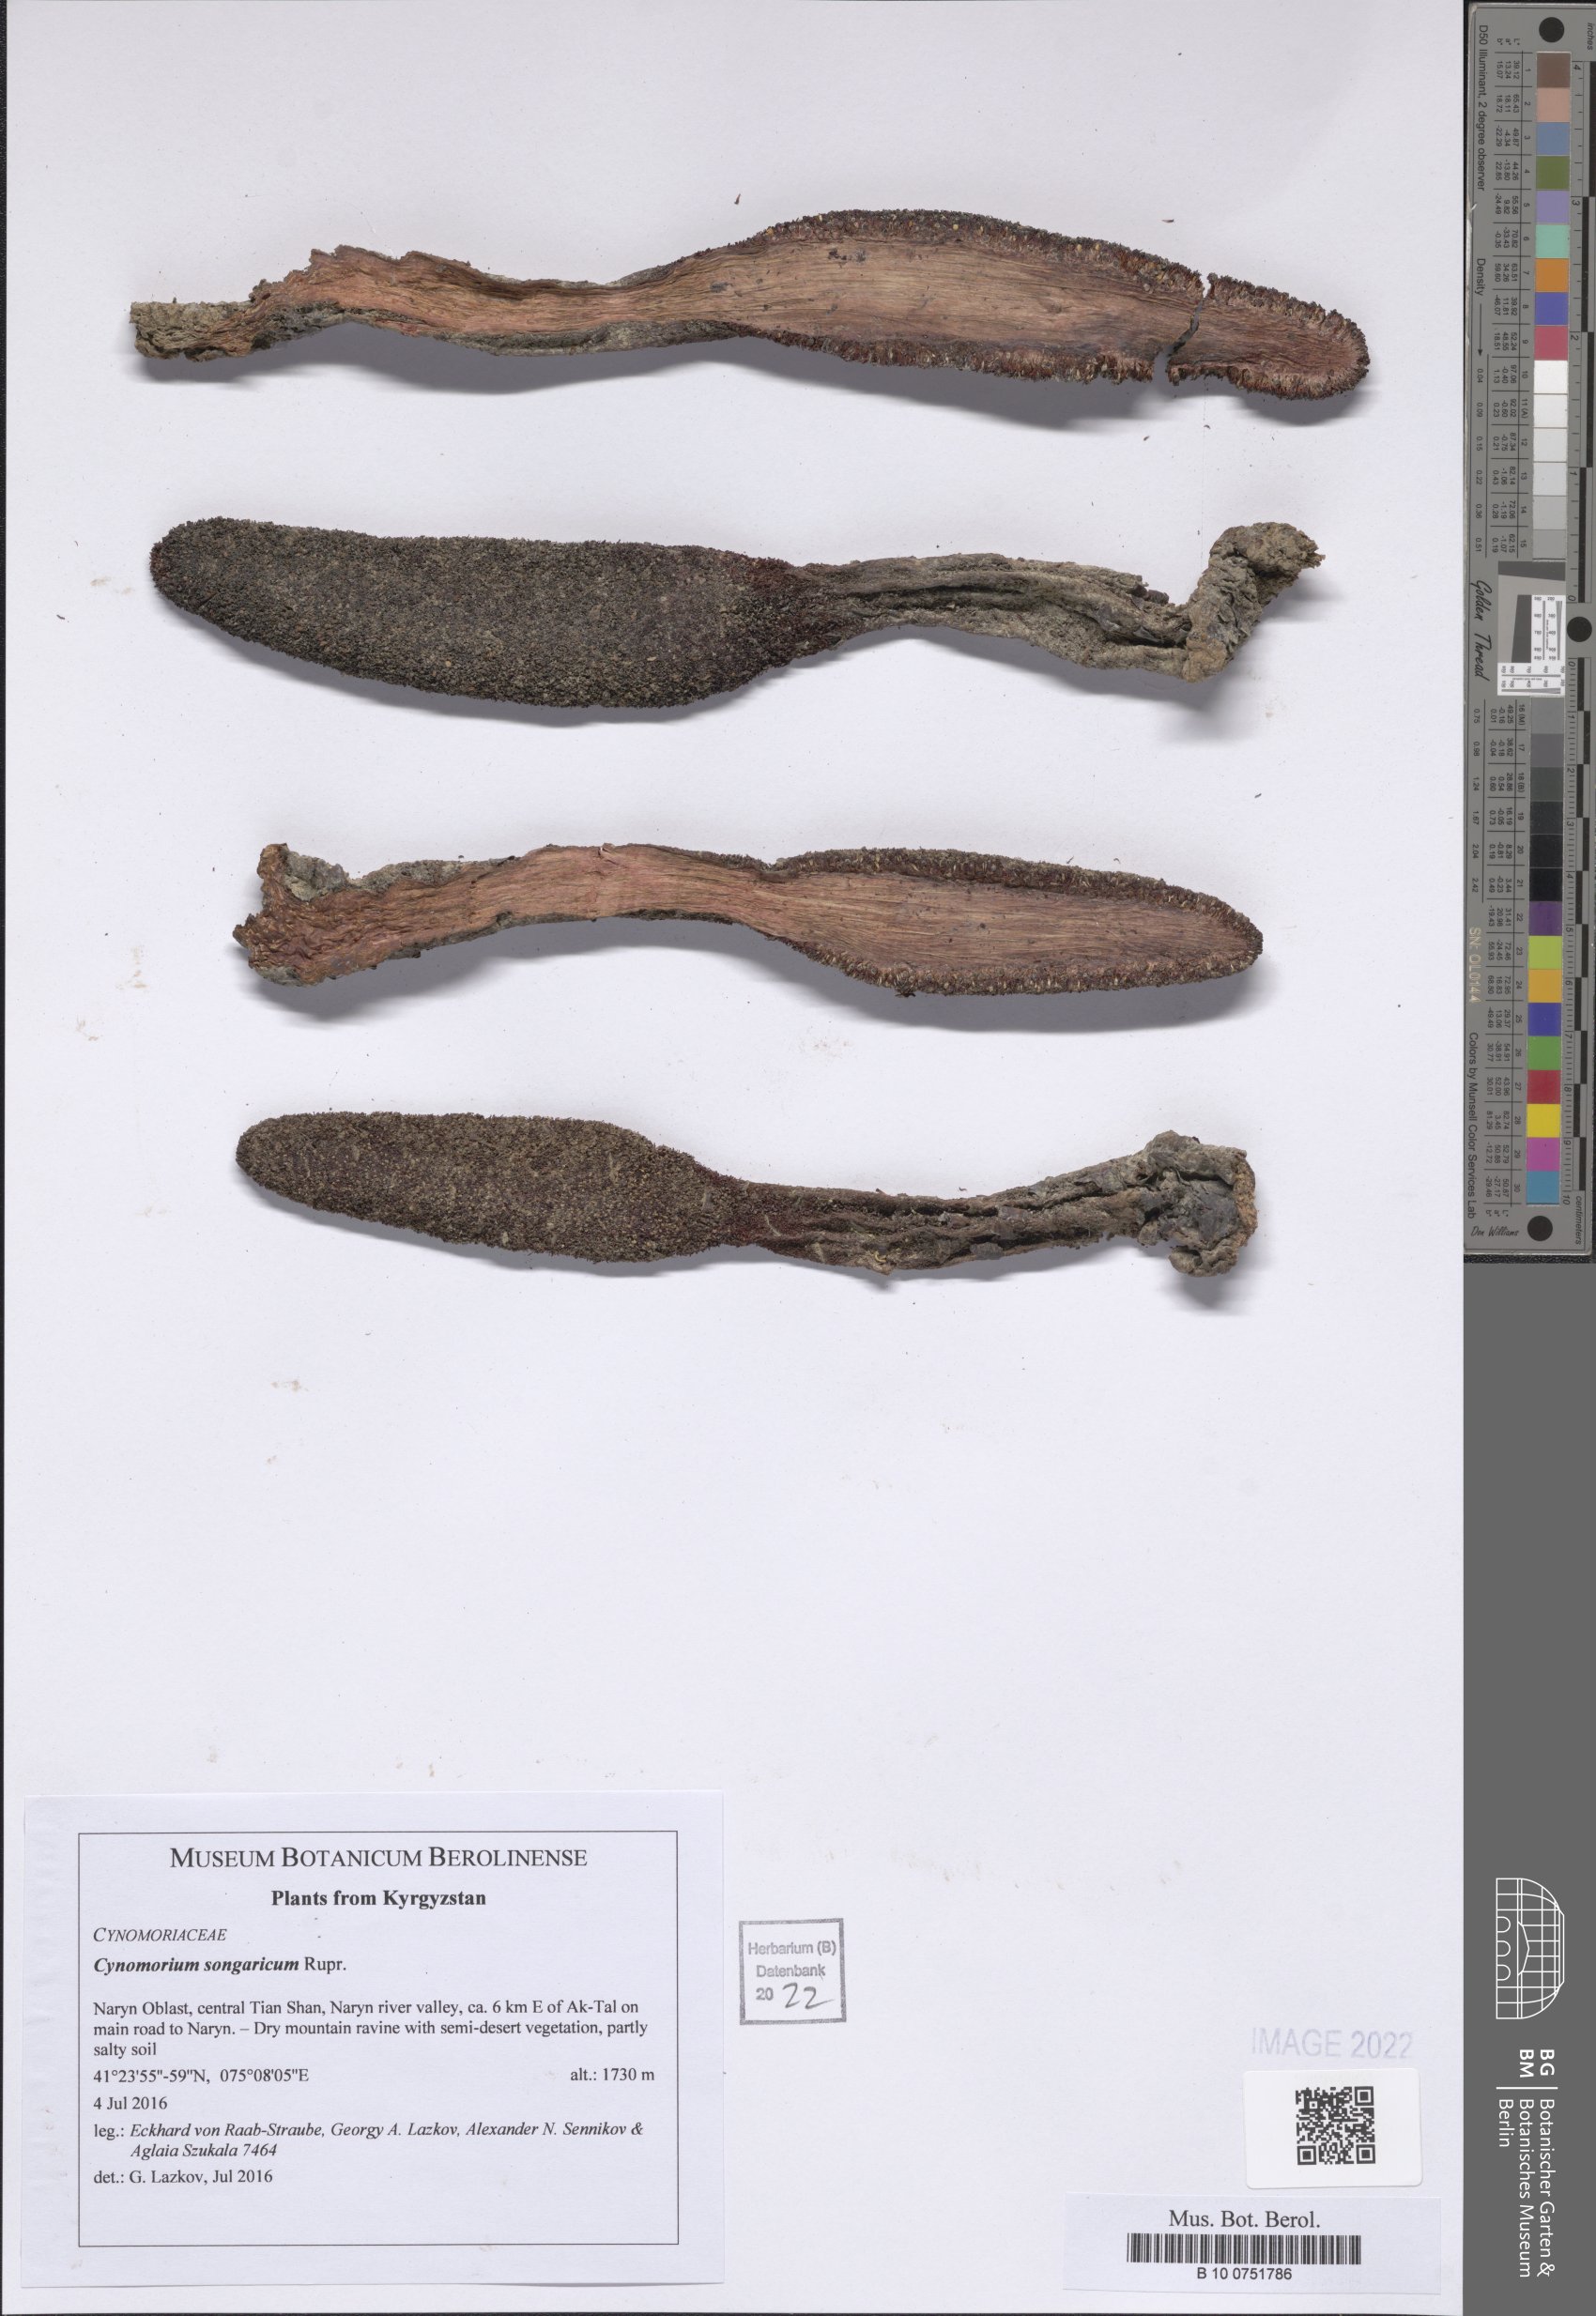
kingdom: Plantae
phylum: Tracheophyta
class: Magnoliopsida
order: Saxifragales
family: Cynomoriaceae
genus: Cynomorium
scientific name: Cynomorium coccineum
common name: Maltese-mushroom
